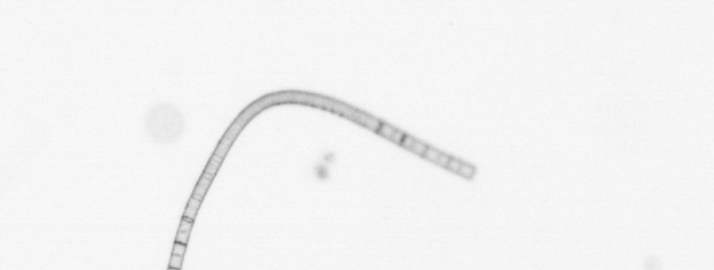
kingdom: Chromista
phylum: Ochrophyta
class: Bacillariophyceae
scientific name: Bacillariophyceae
